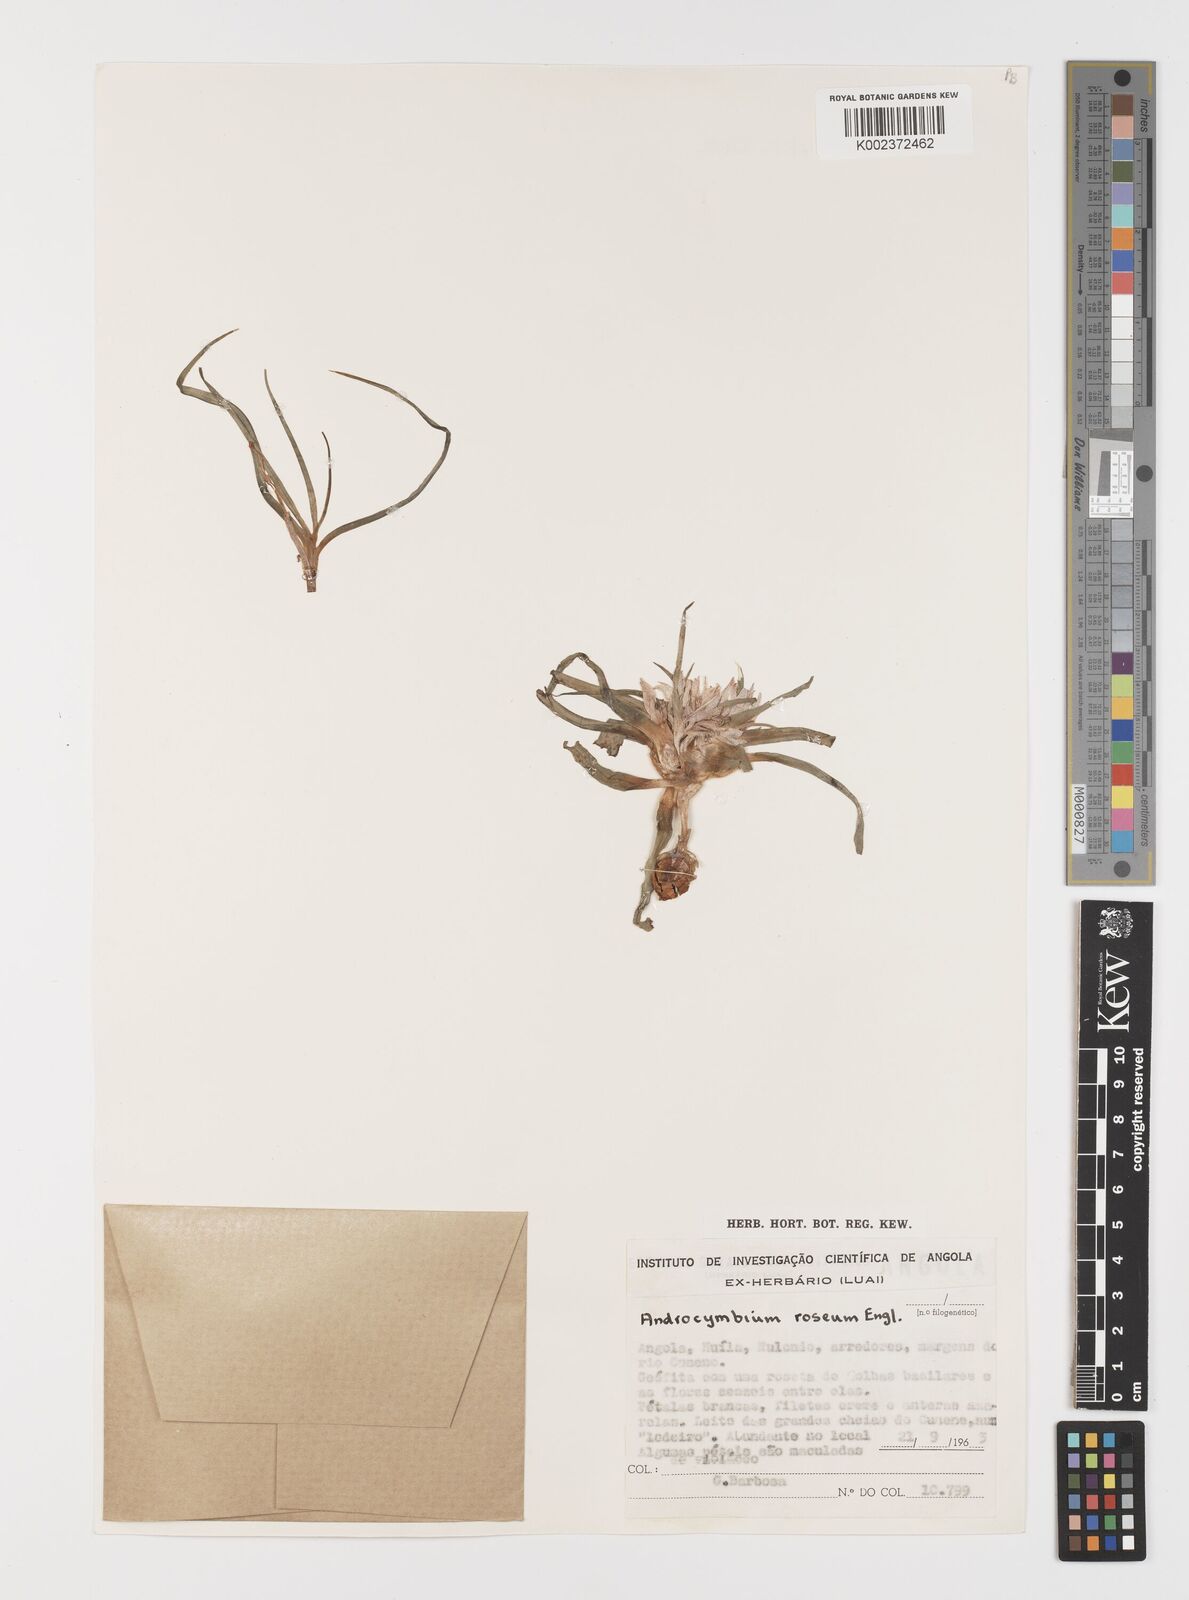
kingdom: Plantae
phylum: Tracheophyta
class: Liliopsida
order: Liliales
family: Colchicaceae
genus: Colchicum
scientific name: Colchicum roseum
